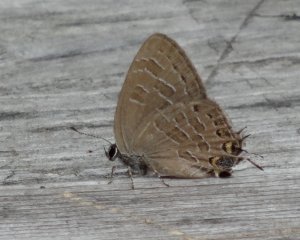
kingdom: Animalia
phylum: Arthropoda
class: Insecta
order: Lepidoptera
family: Lycaenidae
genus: Satyrium
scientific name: Satyrium liparops
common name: Striped Hairstreak
